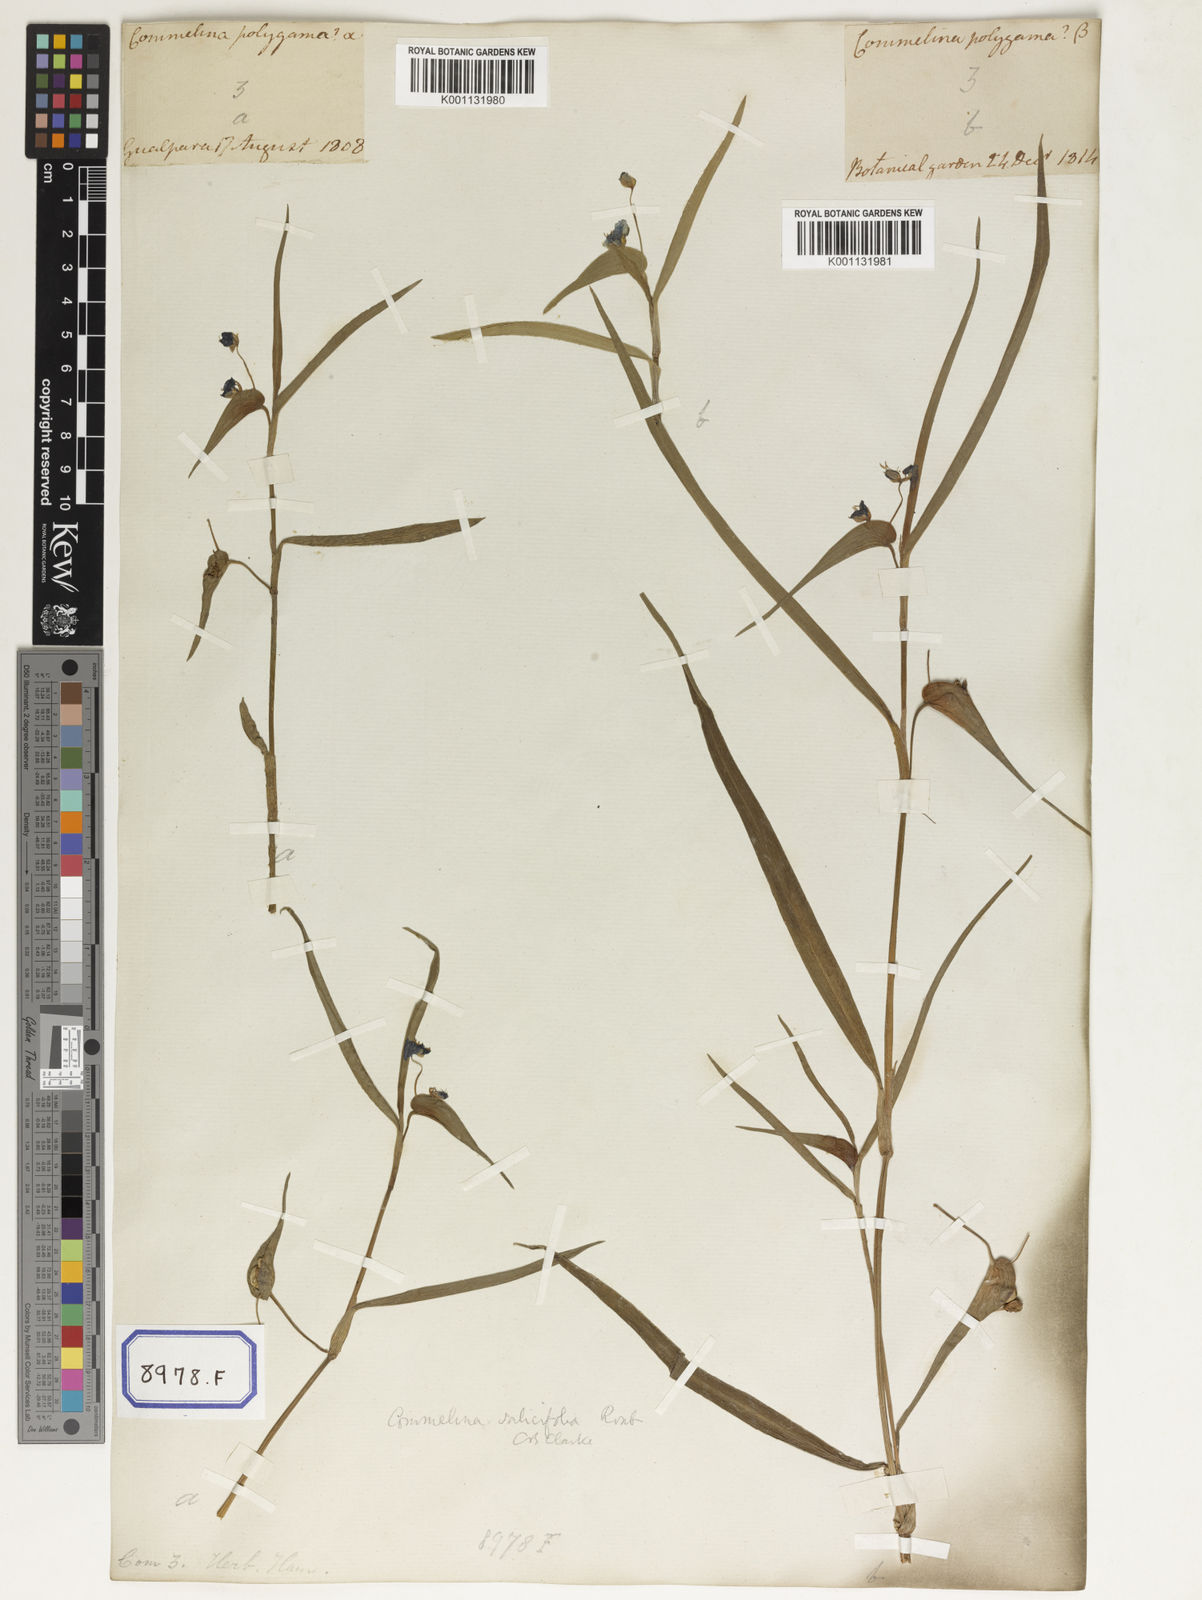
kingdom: Plantae
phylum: Tracheophyta
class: Liliopsida
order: Commelinales
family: Commelinaceae
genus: Commelina
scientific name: Commelina communis
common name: Asiatic dayflower
